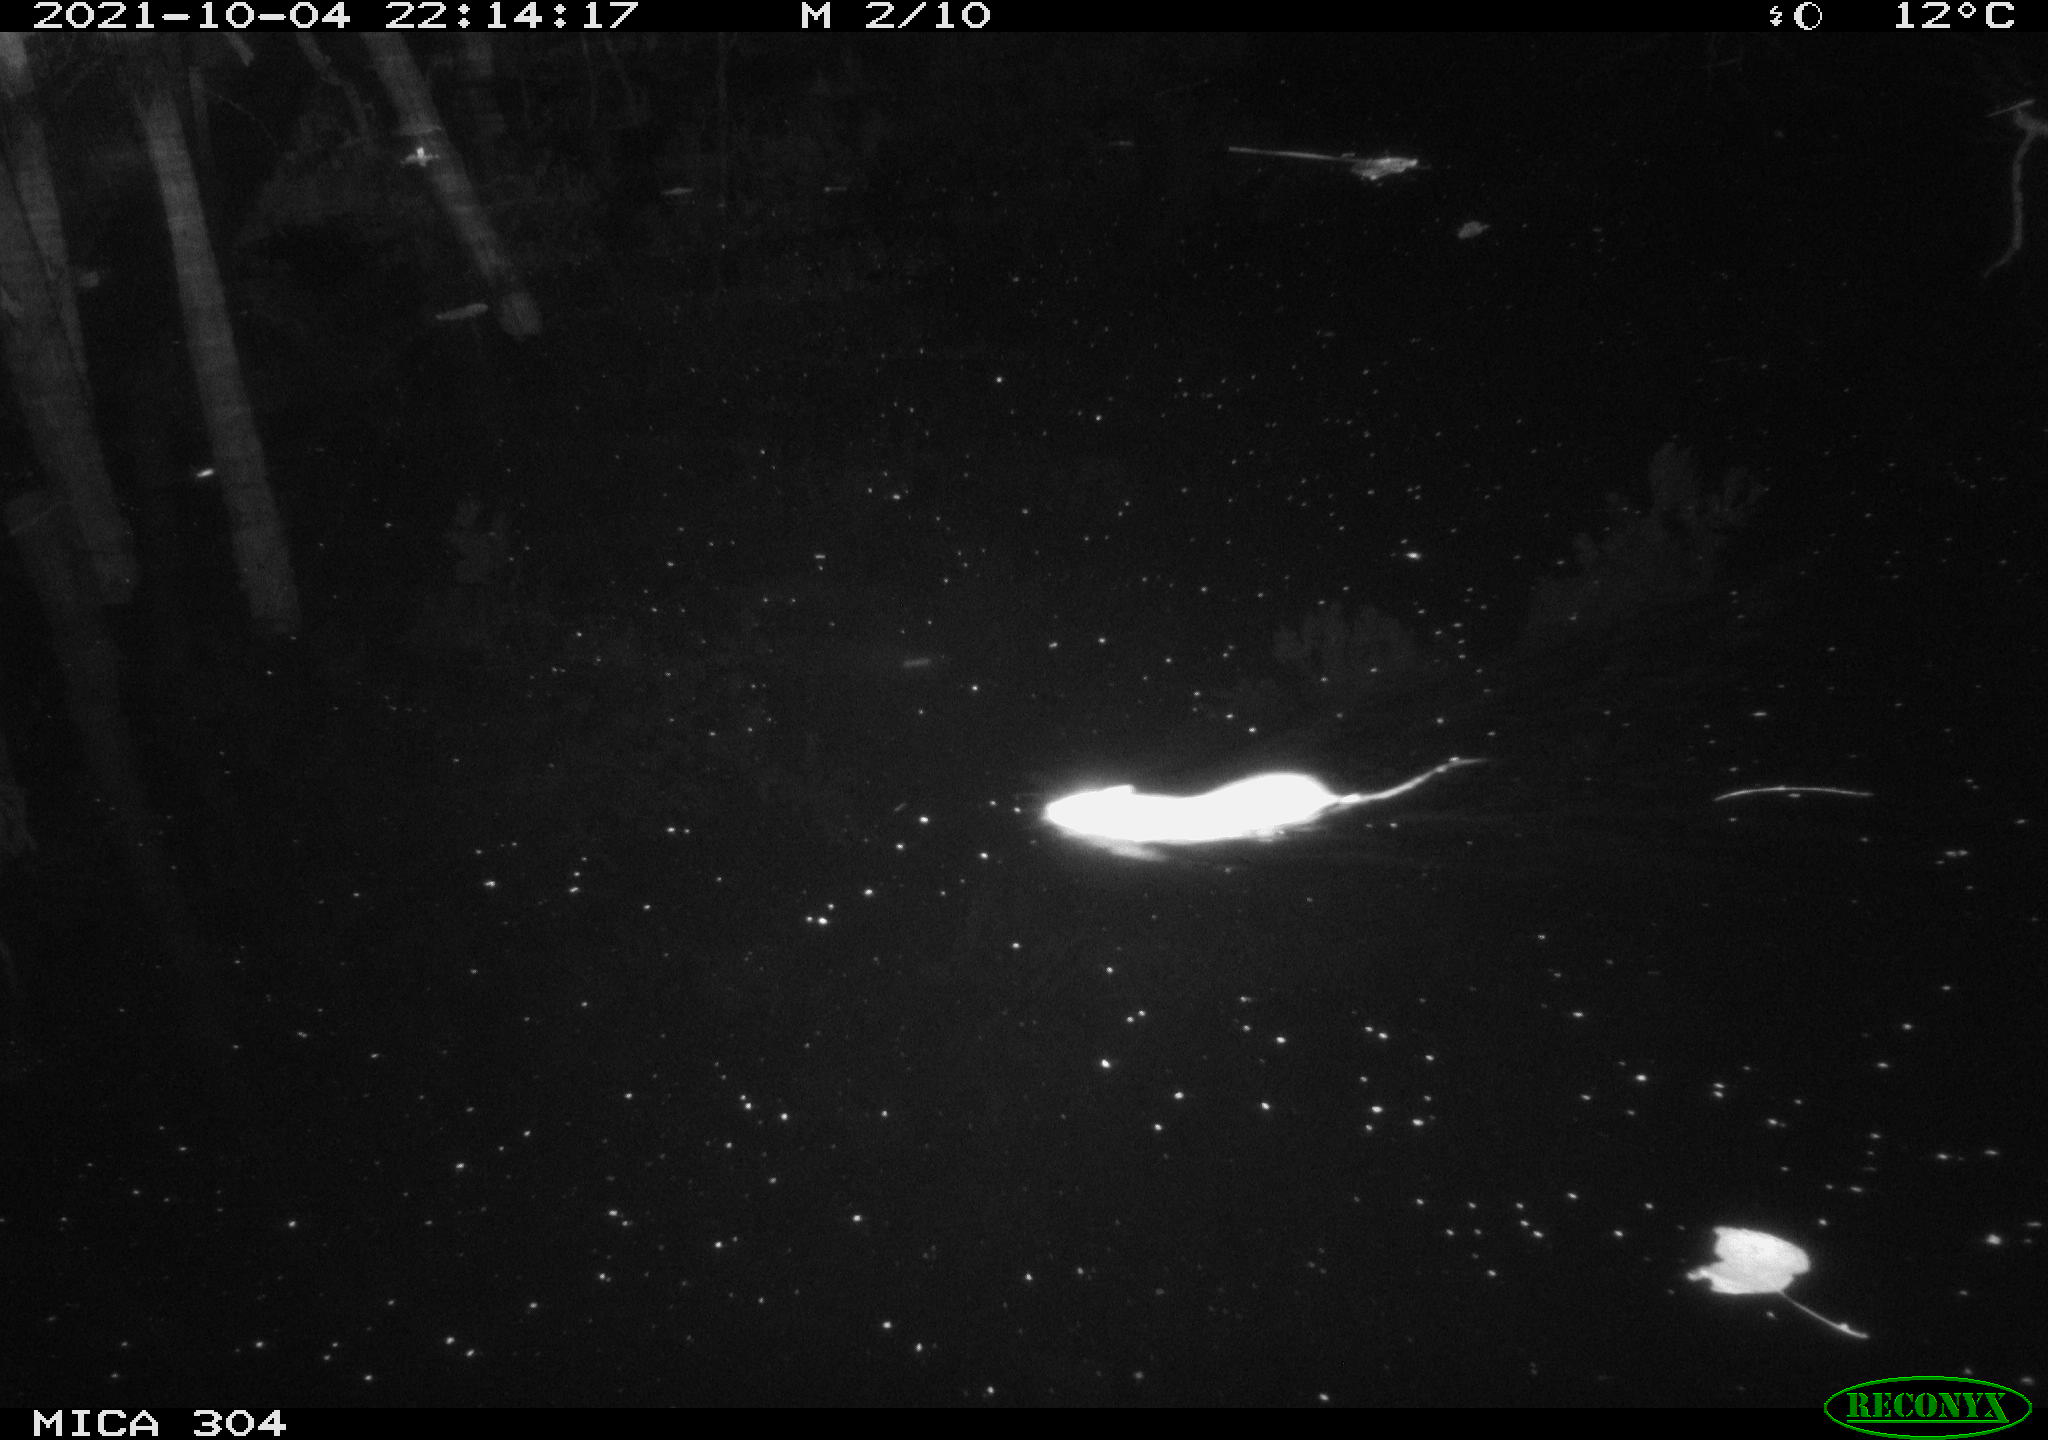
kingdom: Animalia
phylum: Chordata
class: Mammalia
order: Rodentia
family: Muridae
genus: Rattus
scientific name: Rattus norvegicus
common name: Brown rat
